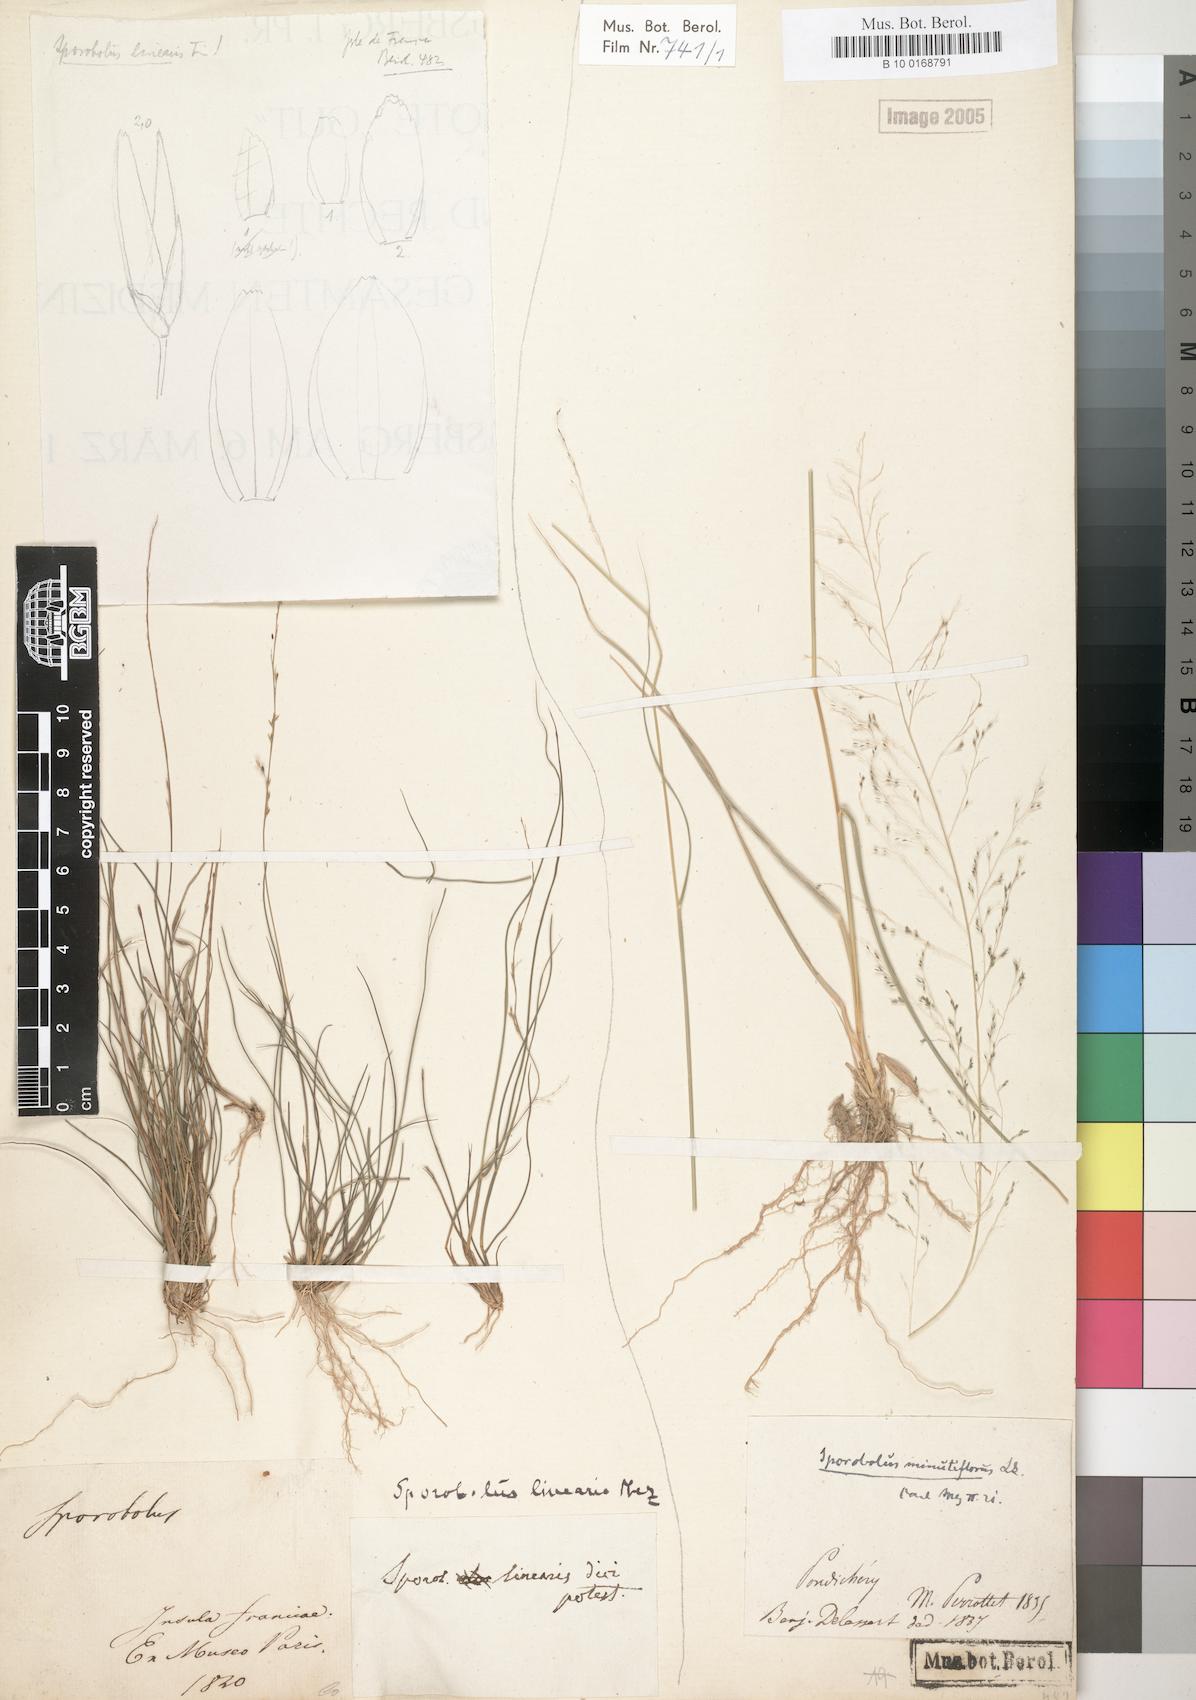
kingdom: Plantae
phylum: Tracheophyta
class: Liliopsida
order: Poales
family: Poaceae
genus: Sporobolus
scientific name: Sporobolus linearis
